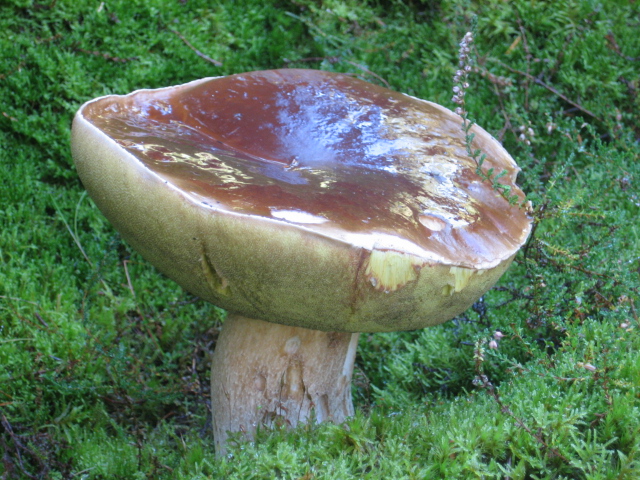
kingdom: Fungi
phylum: Basidiomycota
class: Agaricomycetes
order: Boletales
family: Boletaceae
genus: Boletus
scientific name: Boletus edulis
